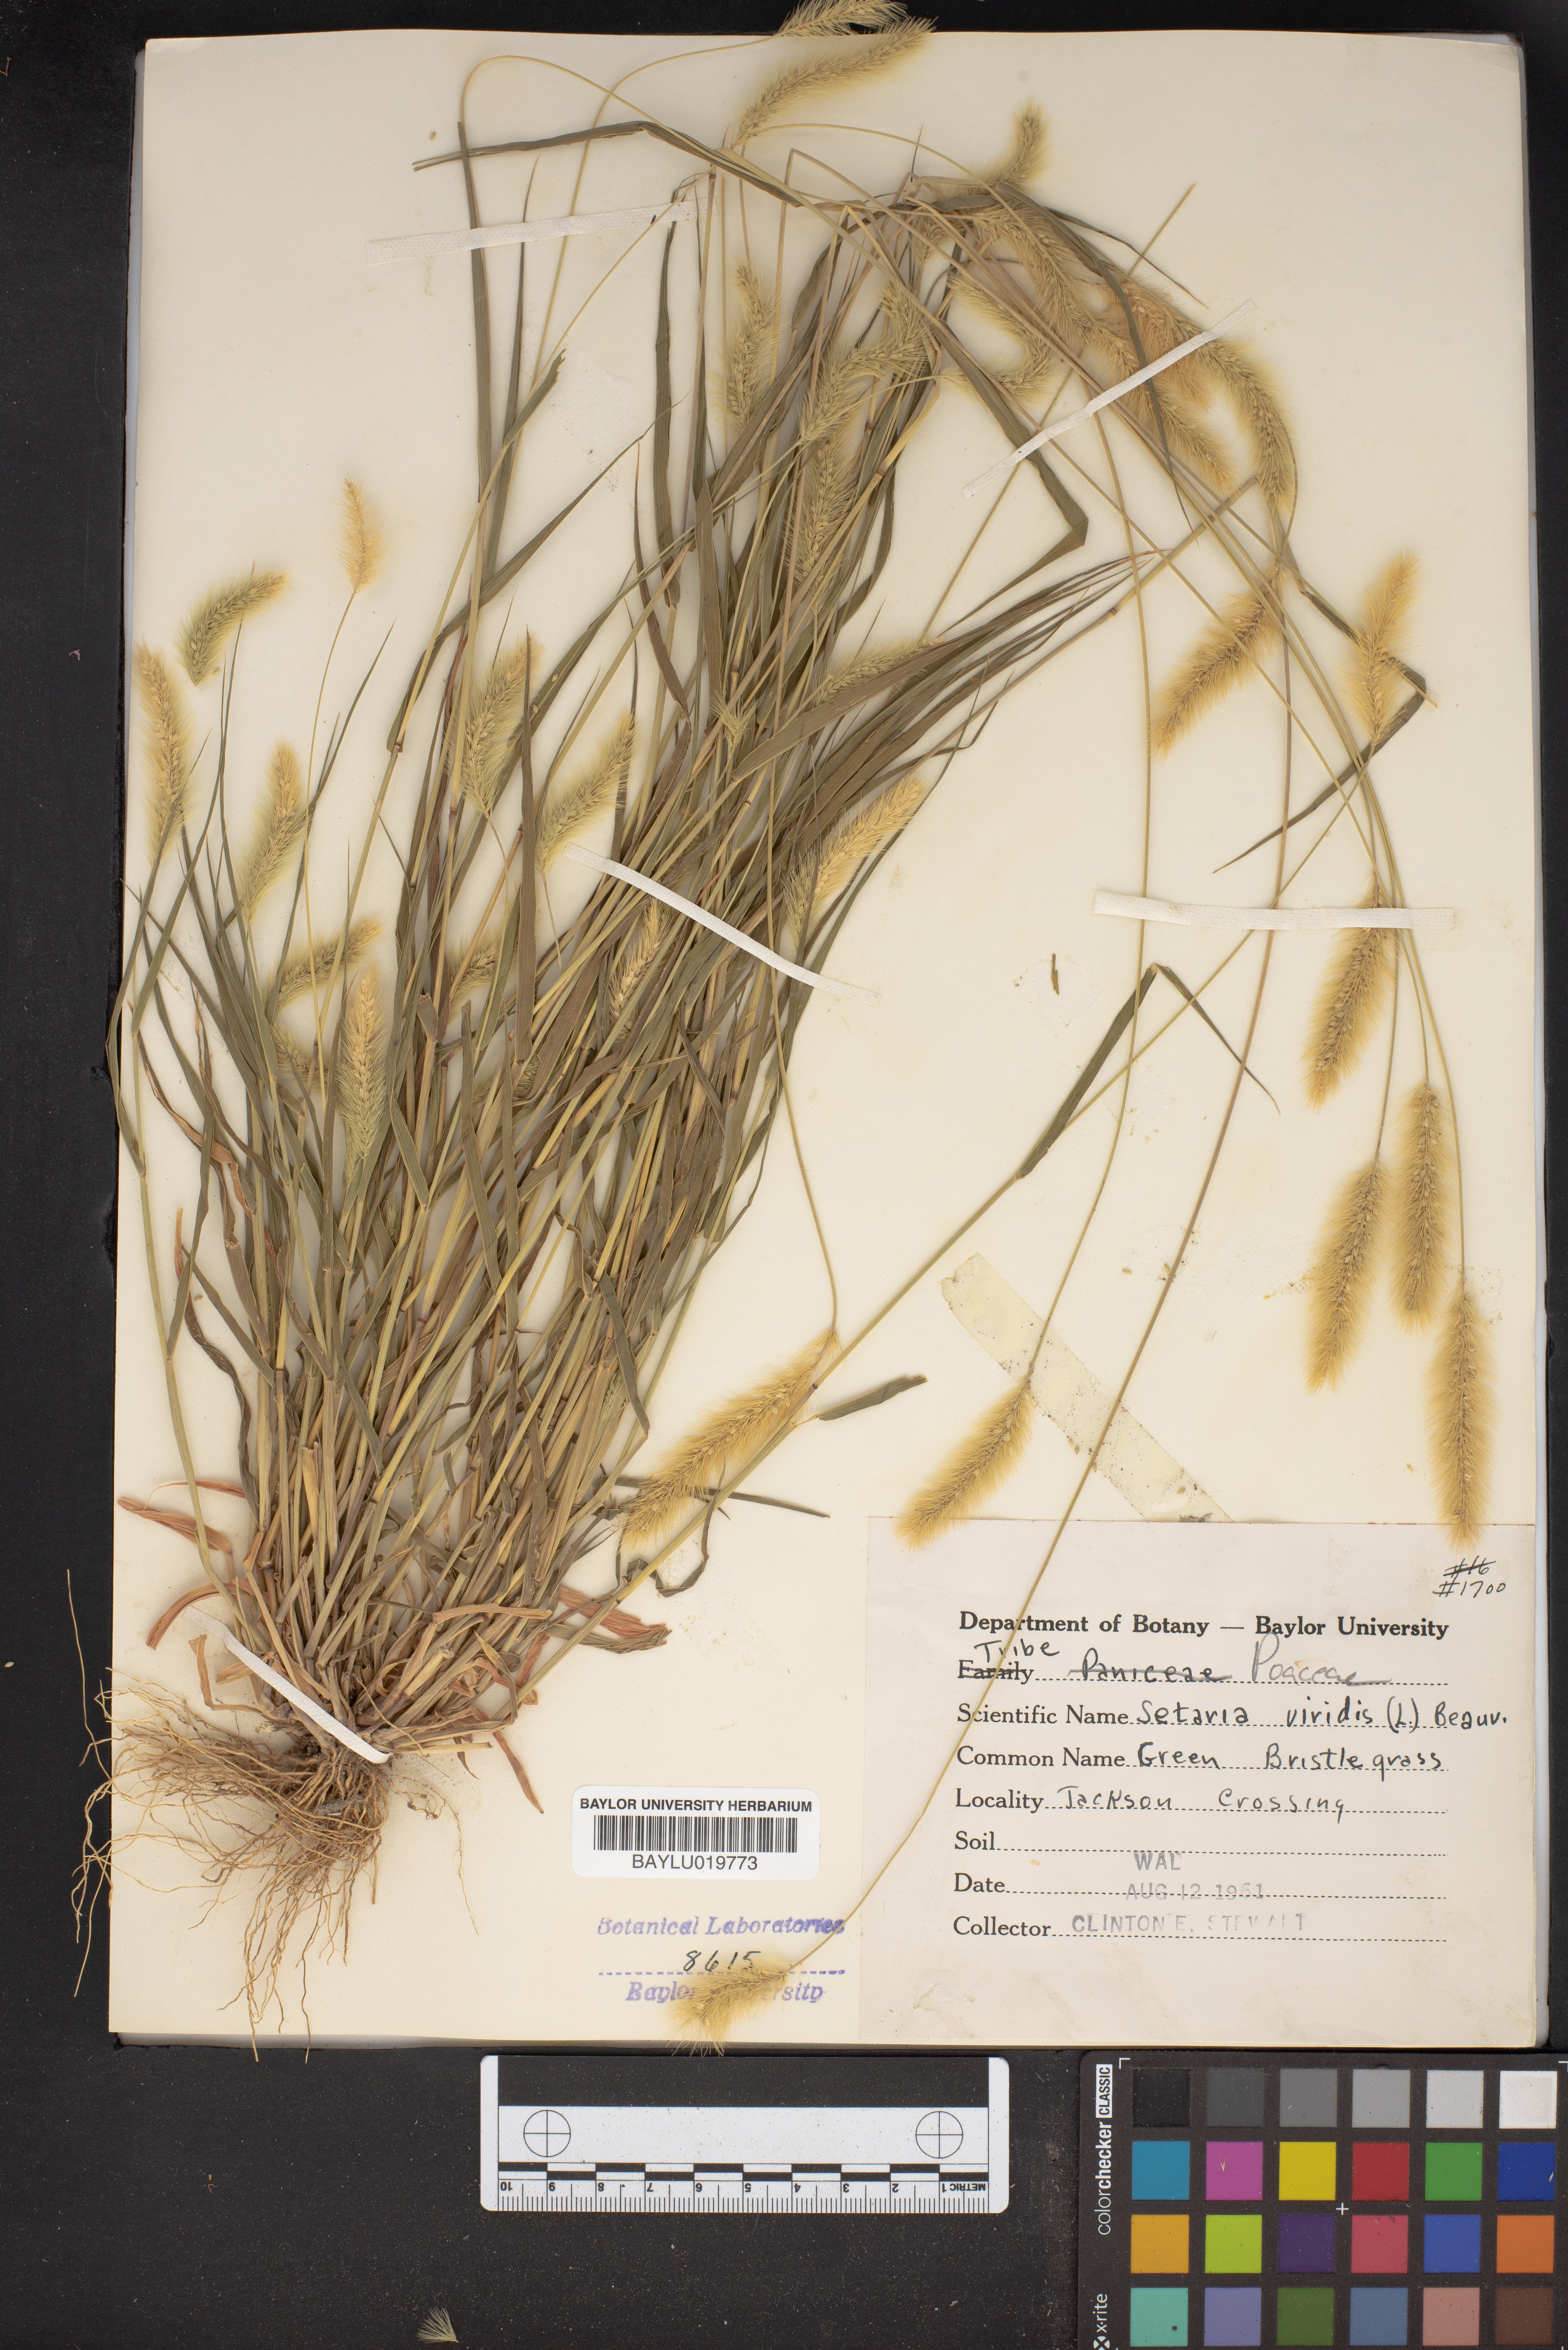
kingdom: Plantae
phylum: Tracheophyta
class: Liliopsida
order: Poales
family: Poaceae
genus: Setaria
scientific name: Setaria viridis
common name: Green bristlegrass
